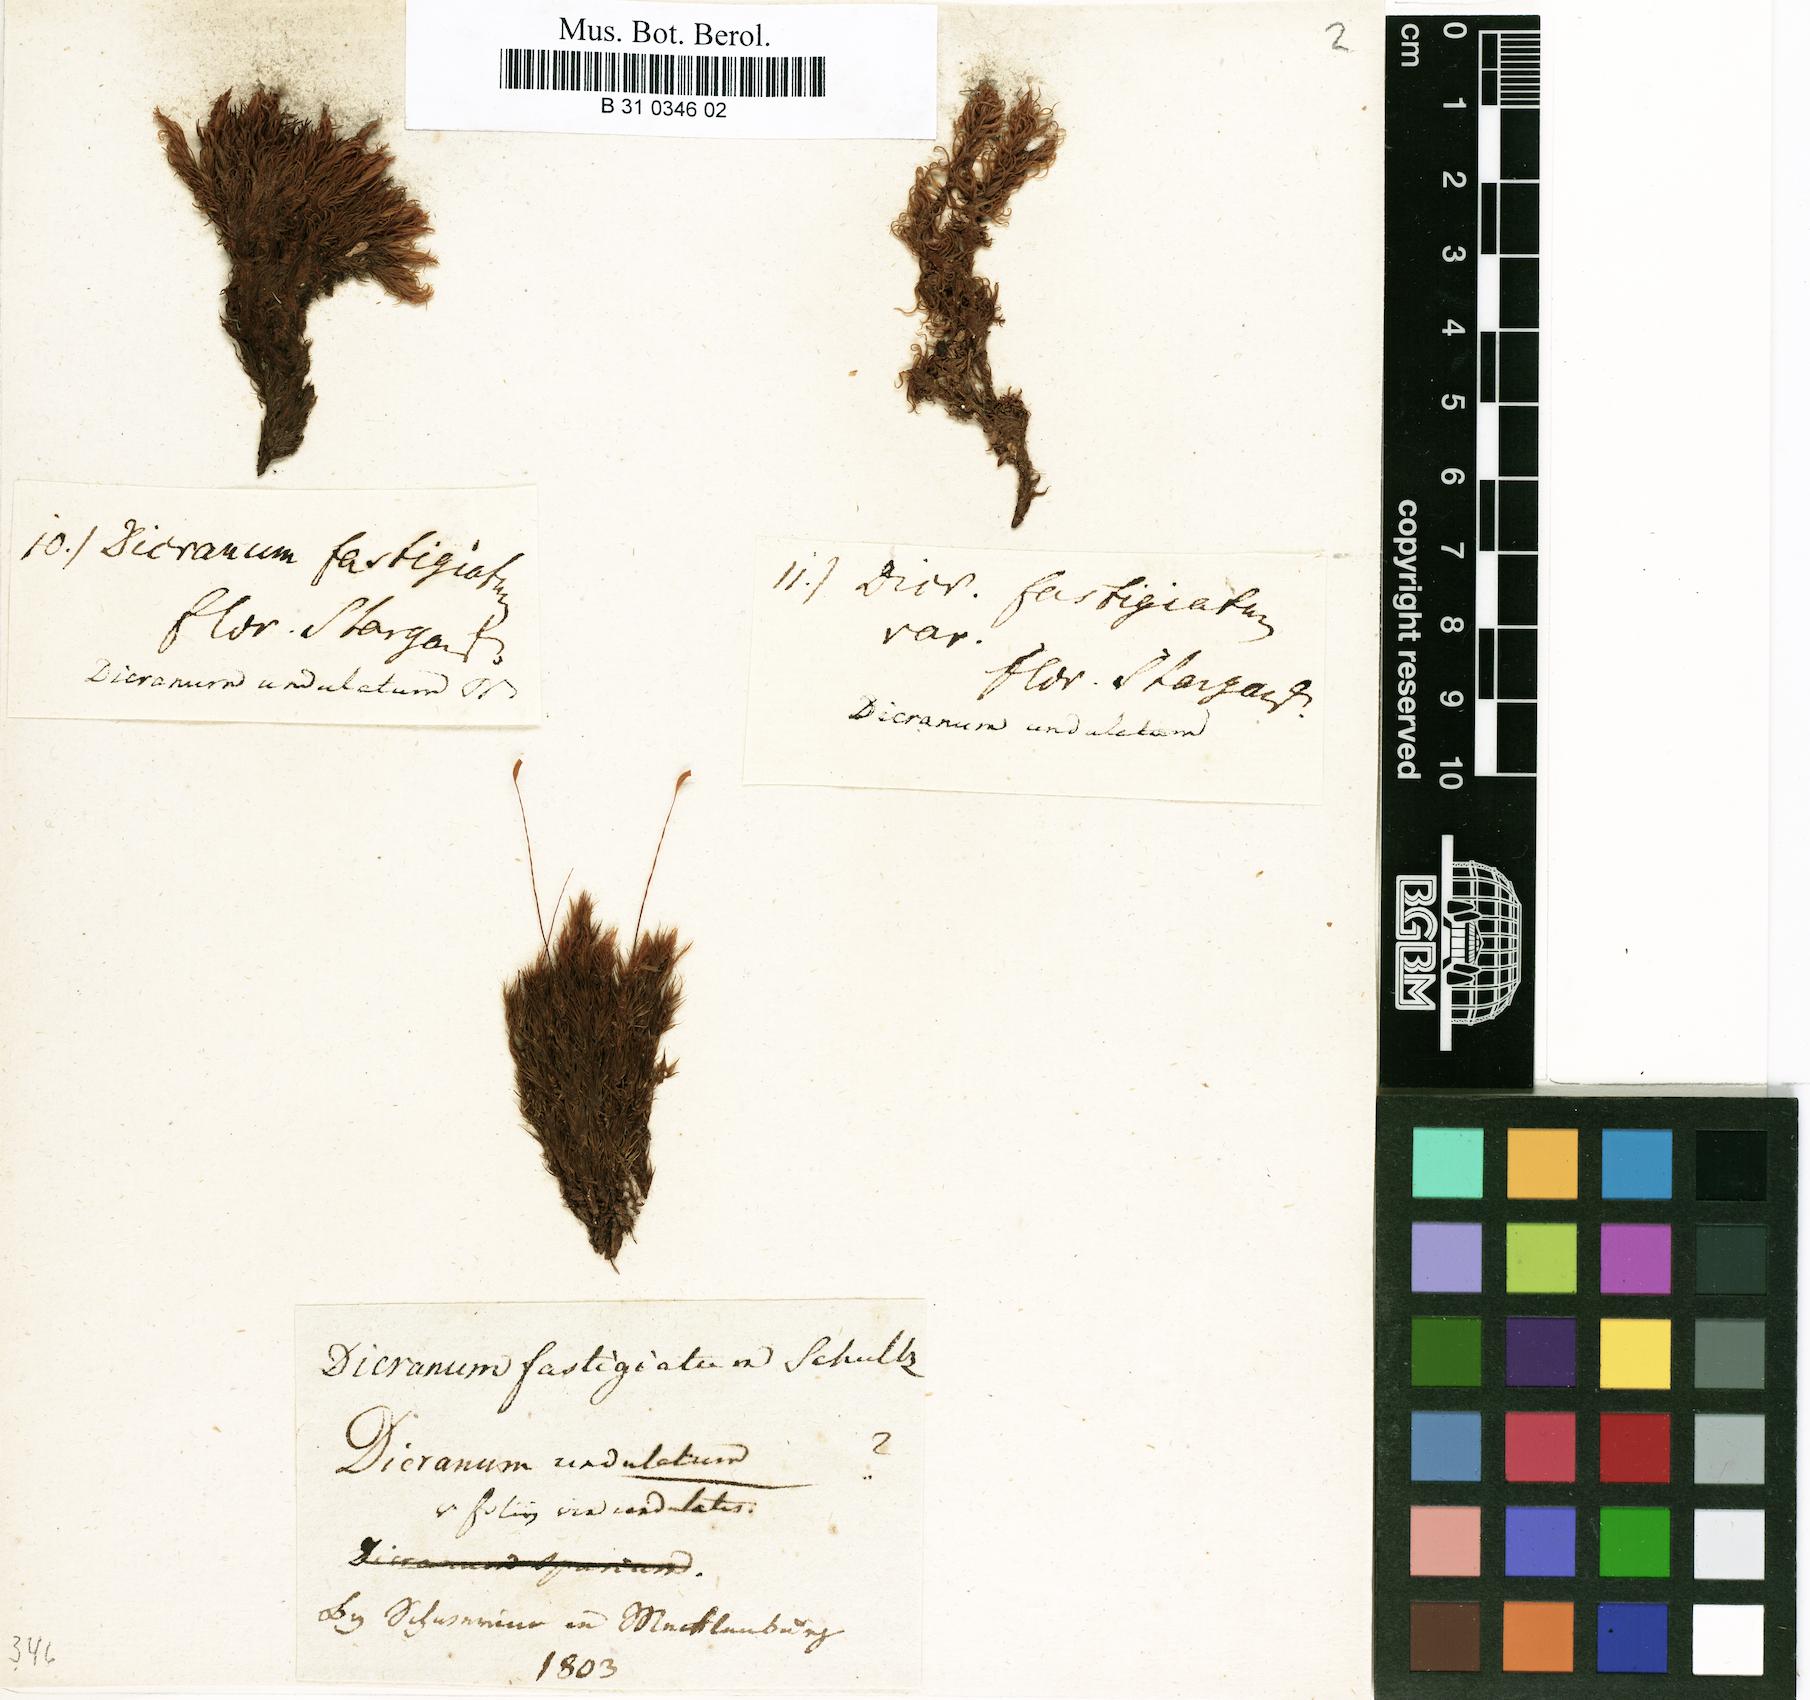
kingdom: Plantae
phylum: Bryophyta
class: Bryopsida
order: Dicranales
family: Dicranaceae
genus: Dicranum
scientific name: Dicranum undulatum
